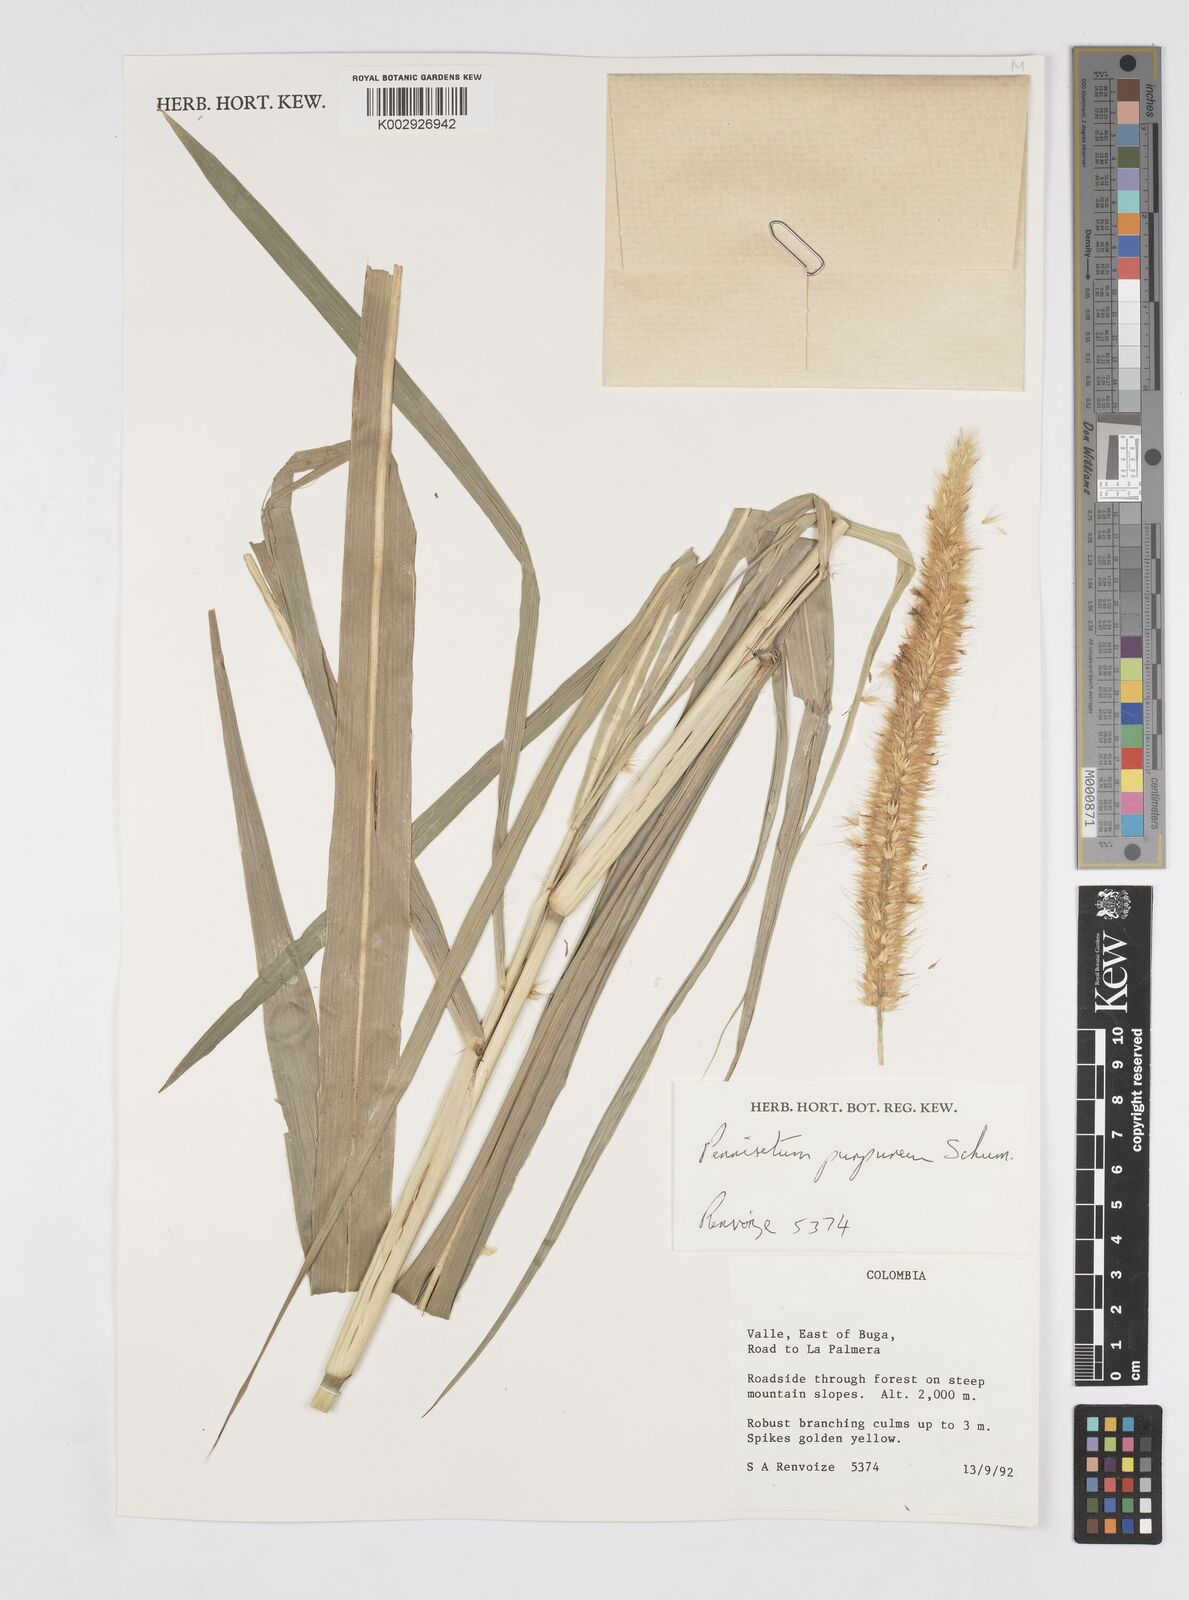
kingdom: Plantae
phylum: Tracheophyta
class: Liliopsida
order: Poales
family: Poaceae
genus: Cenchrus
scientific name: Cenchrus purpureus
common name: Elephant grass
